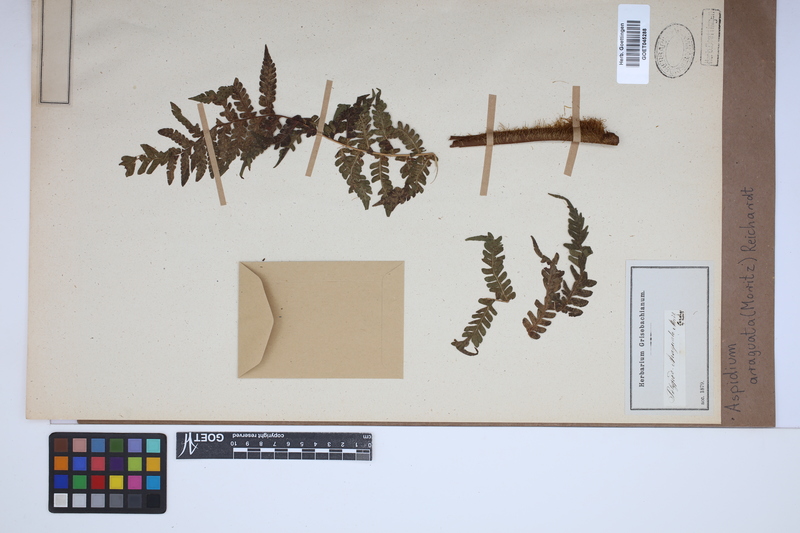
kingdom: Plantae
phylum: Tracheophyta
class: Polypodiopsida
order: Polypodiales
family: Dryopteridaceae
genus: Megalastrum
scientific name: Megalastrum martinicense
